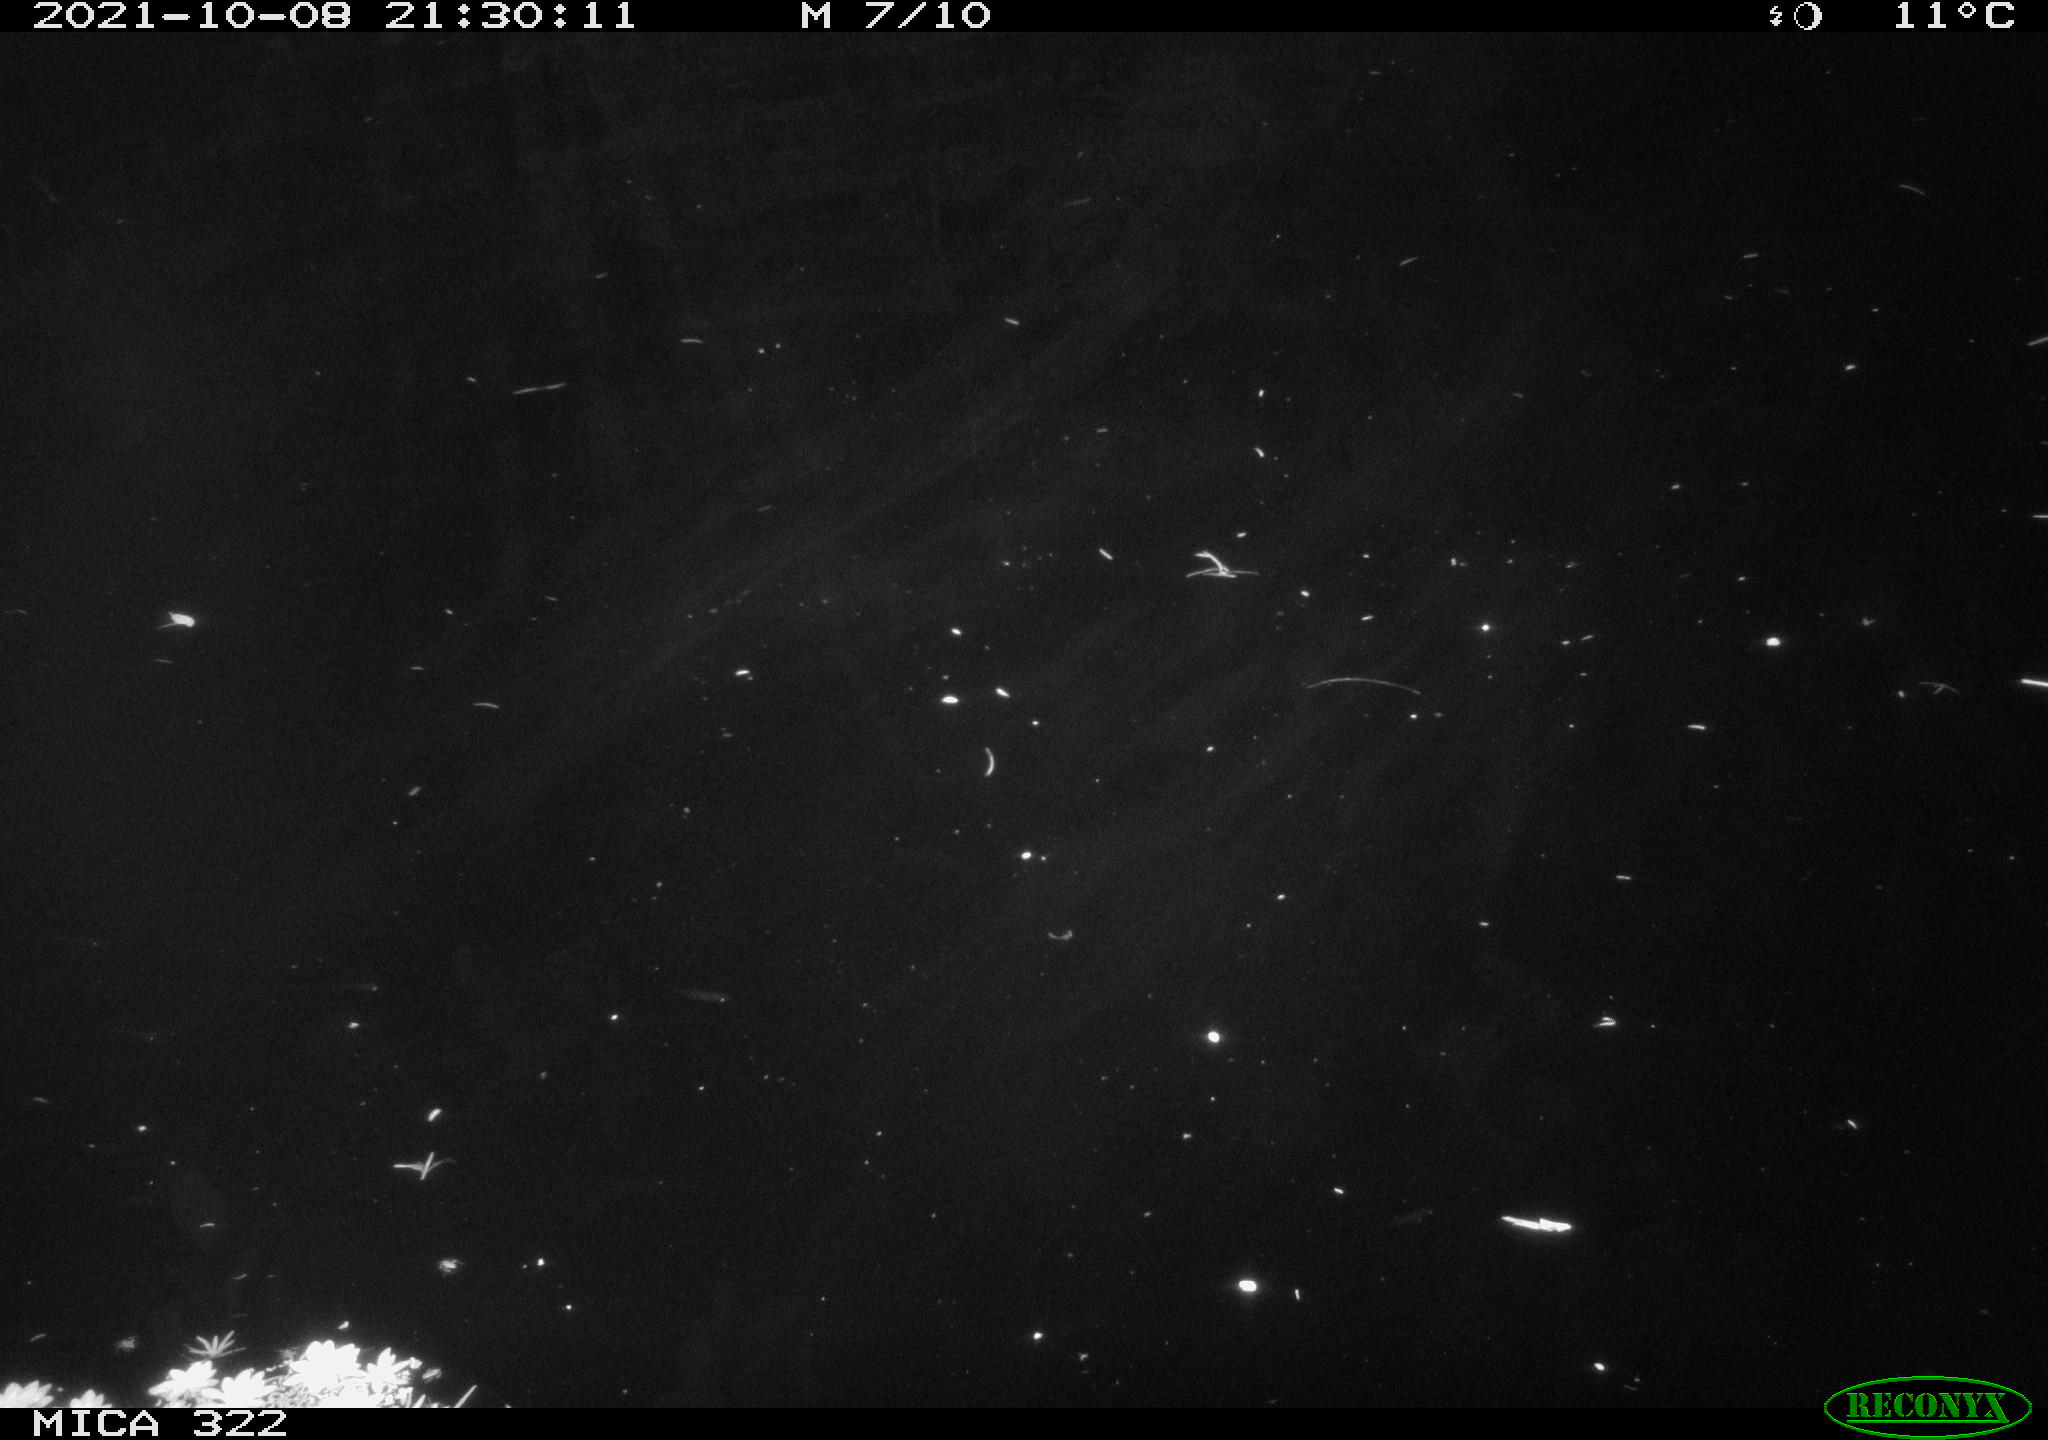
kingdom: Animalia
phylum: Chordata
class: Mammalia
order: Rodentia
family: Cricetidae
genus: Ondatra
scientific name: Ondatra zibethicus
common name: Muskrat
